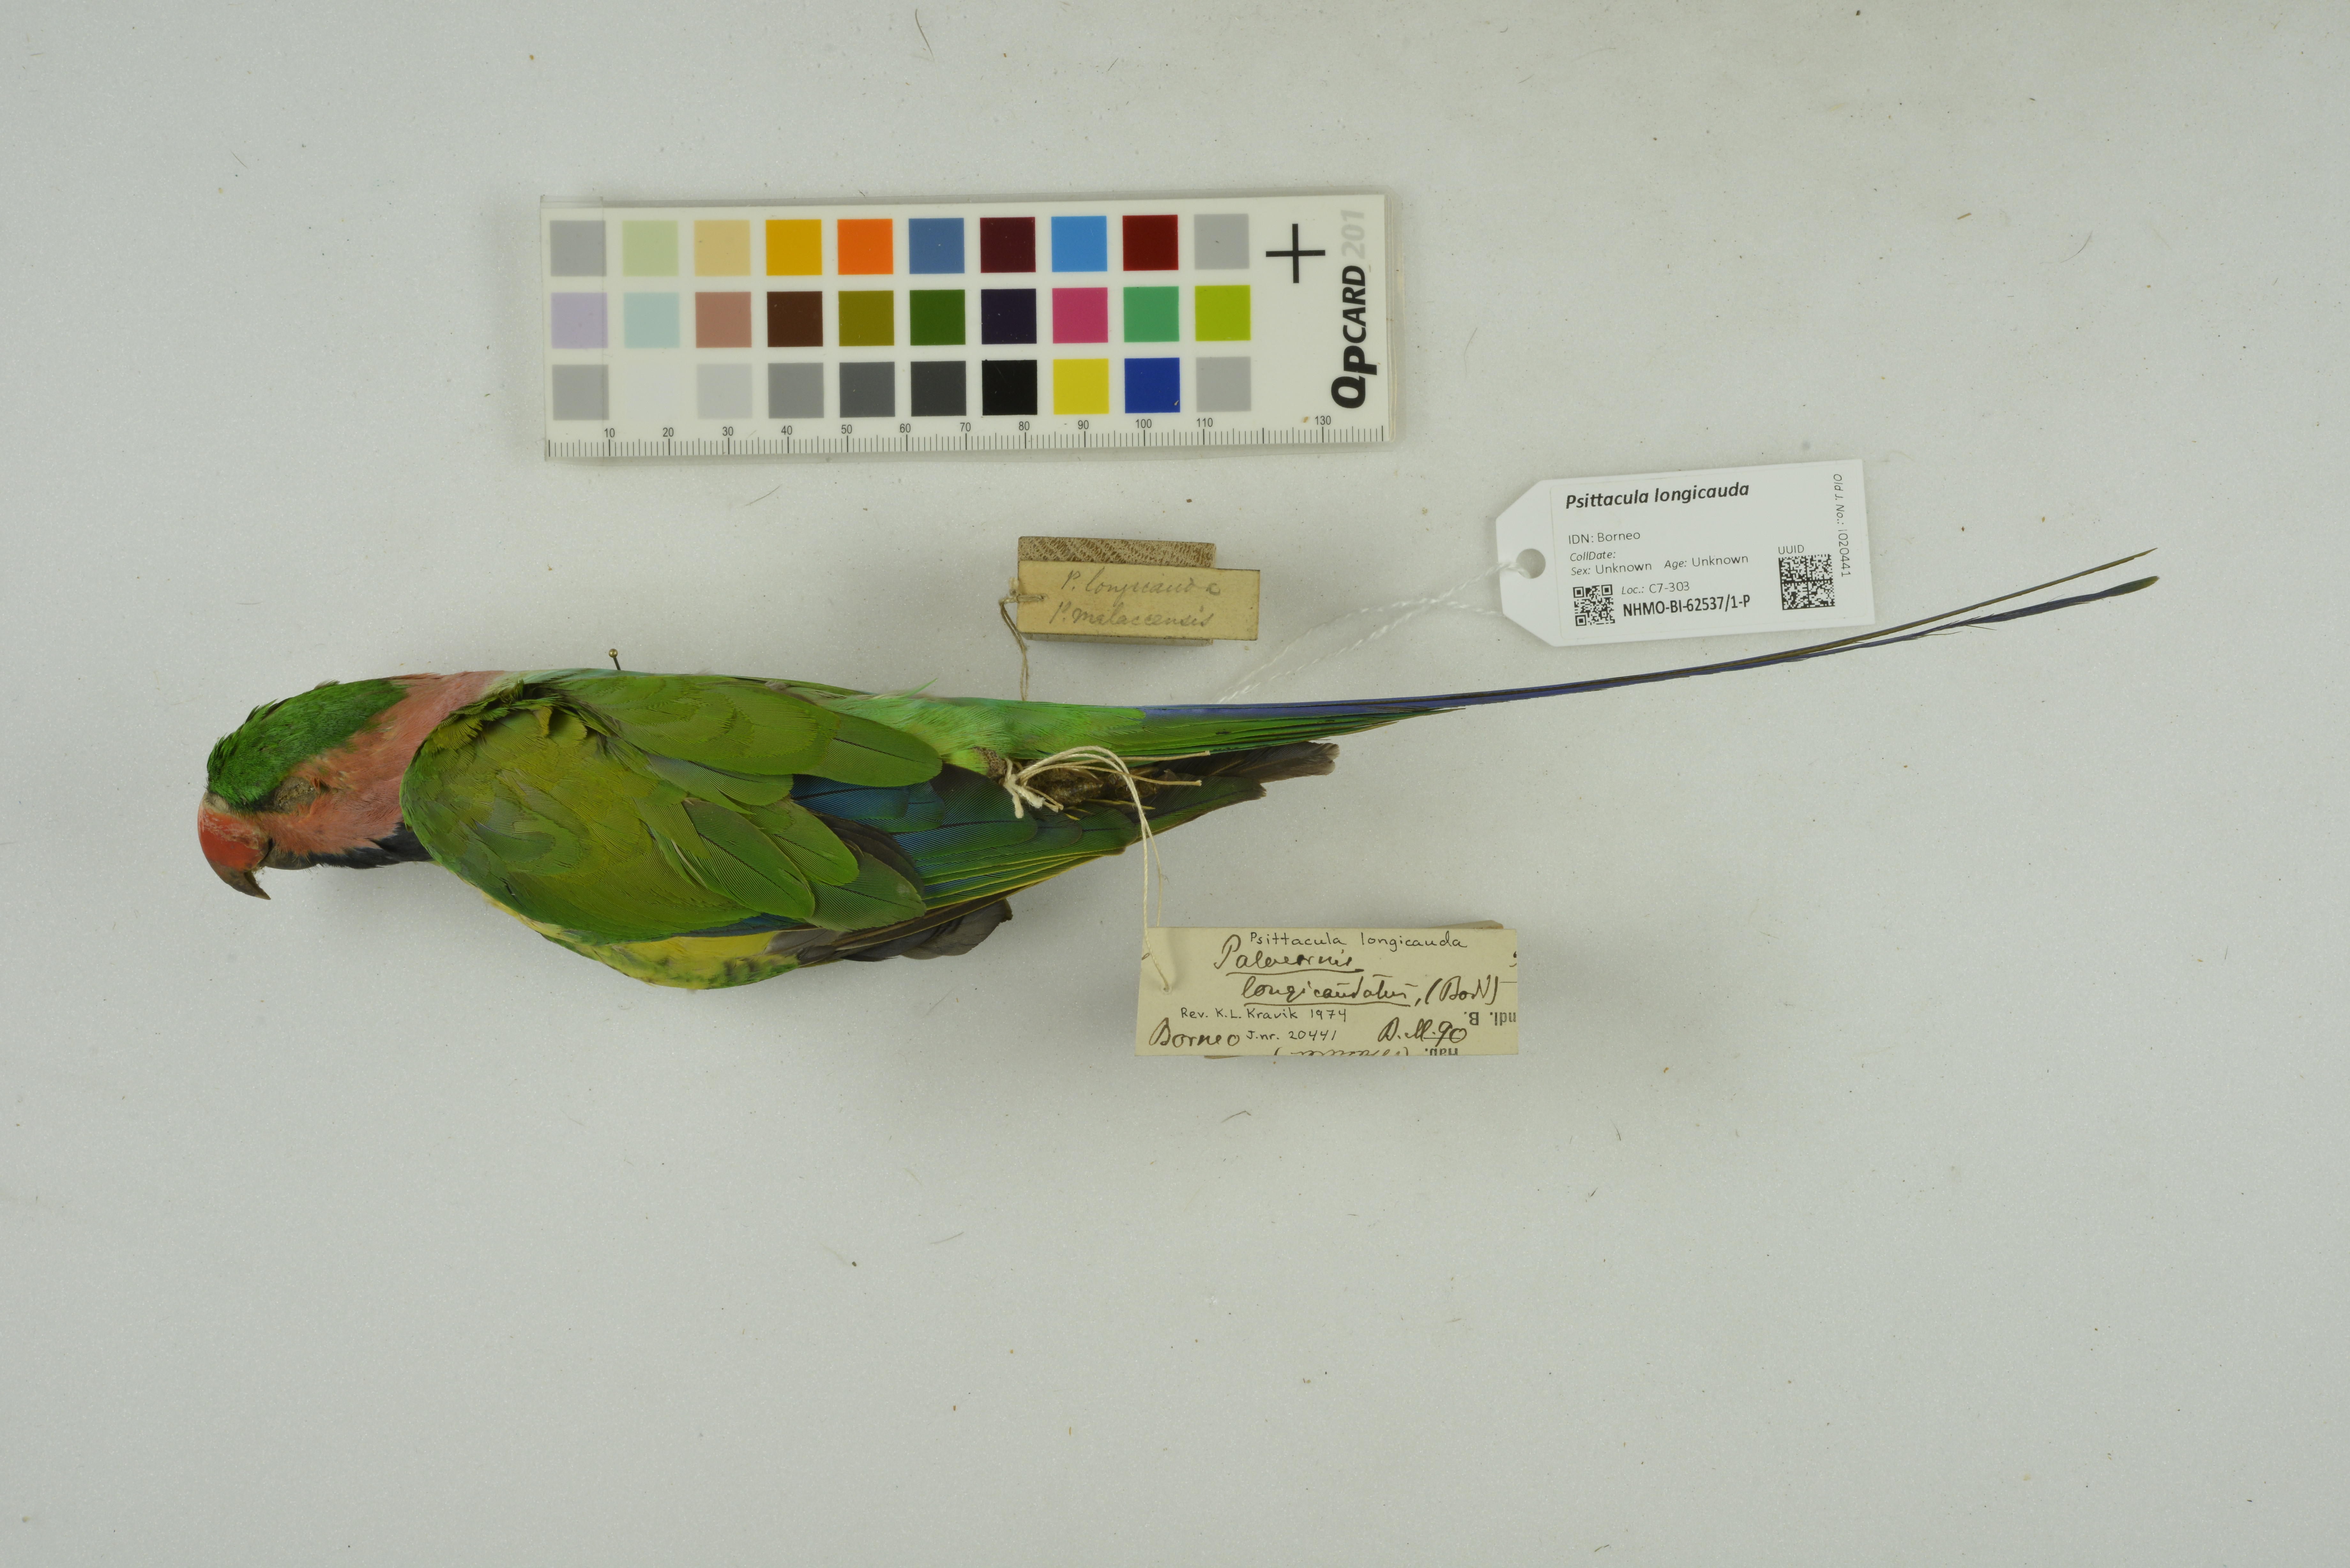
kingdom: Animalia
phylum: Chordata
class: Aves
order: Psittaciformes
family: Psittacidae
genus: Psittacula
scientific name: Psittacula longicauda
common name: Long-tailed parakeet
